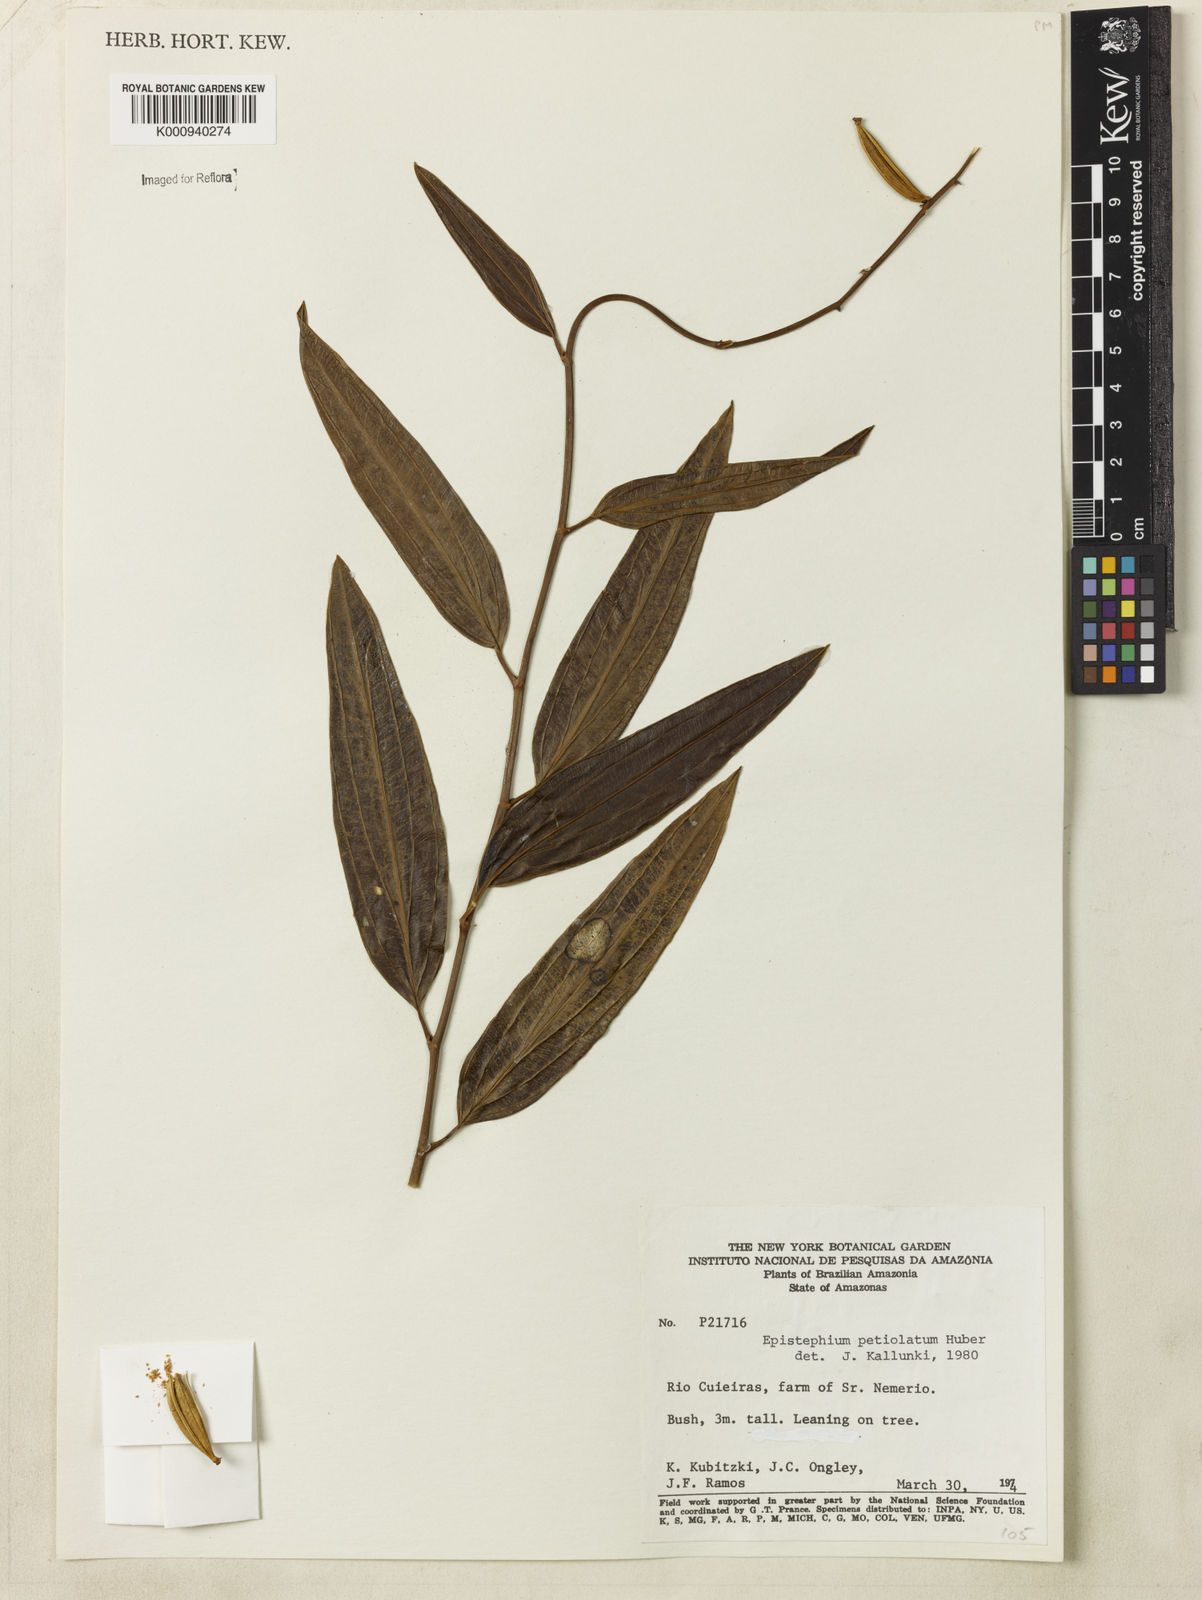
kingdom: Plantae
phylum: Tracheophyta
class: Liliopsida
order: Asparagales
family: Orchidaceae
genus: Epistephium
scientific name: Epistephium parviflorum
